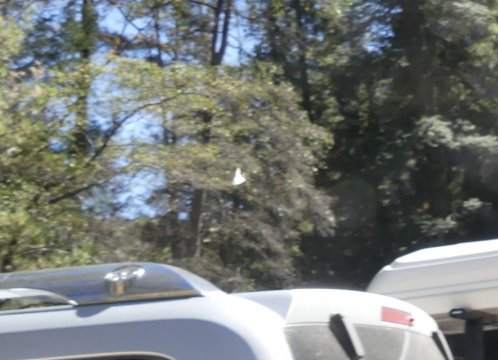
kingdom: Animalia
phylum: Arthropoda
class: Insecta
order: Lepidoptera
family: Pieridae
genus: Neophasia
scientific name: Neophasia terlooii
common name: Chiricahua White
